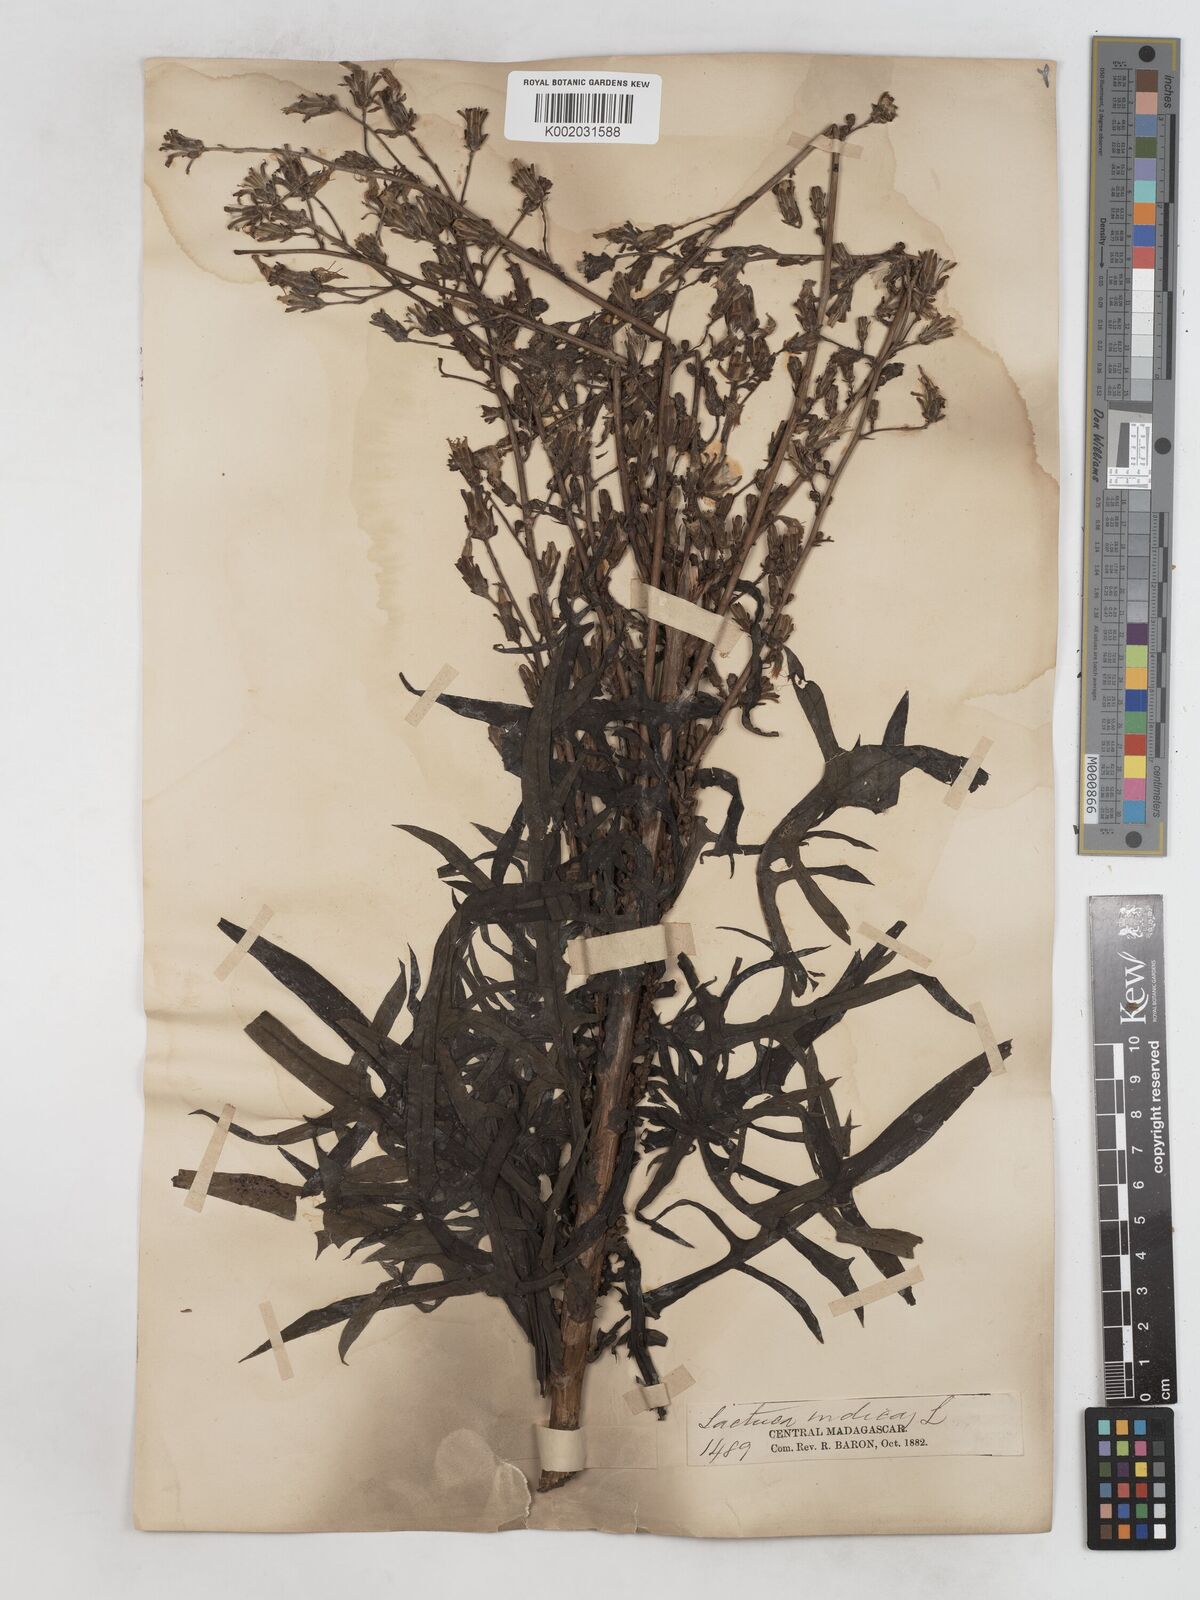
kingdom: Plantae
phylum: Tracheophyta
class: Magnoliopsida
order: Asterales
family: Asteraceae
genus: Lactuca
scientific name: Lactuca
